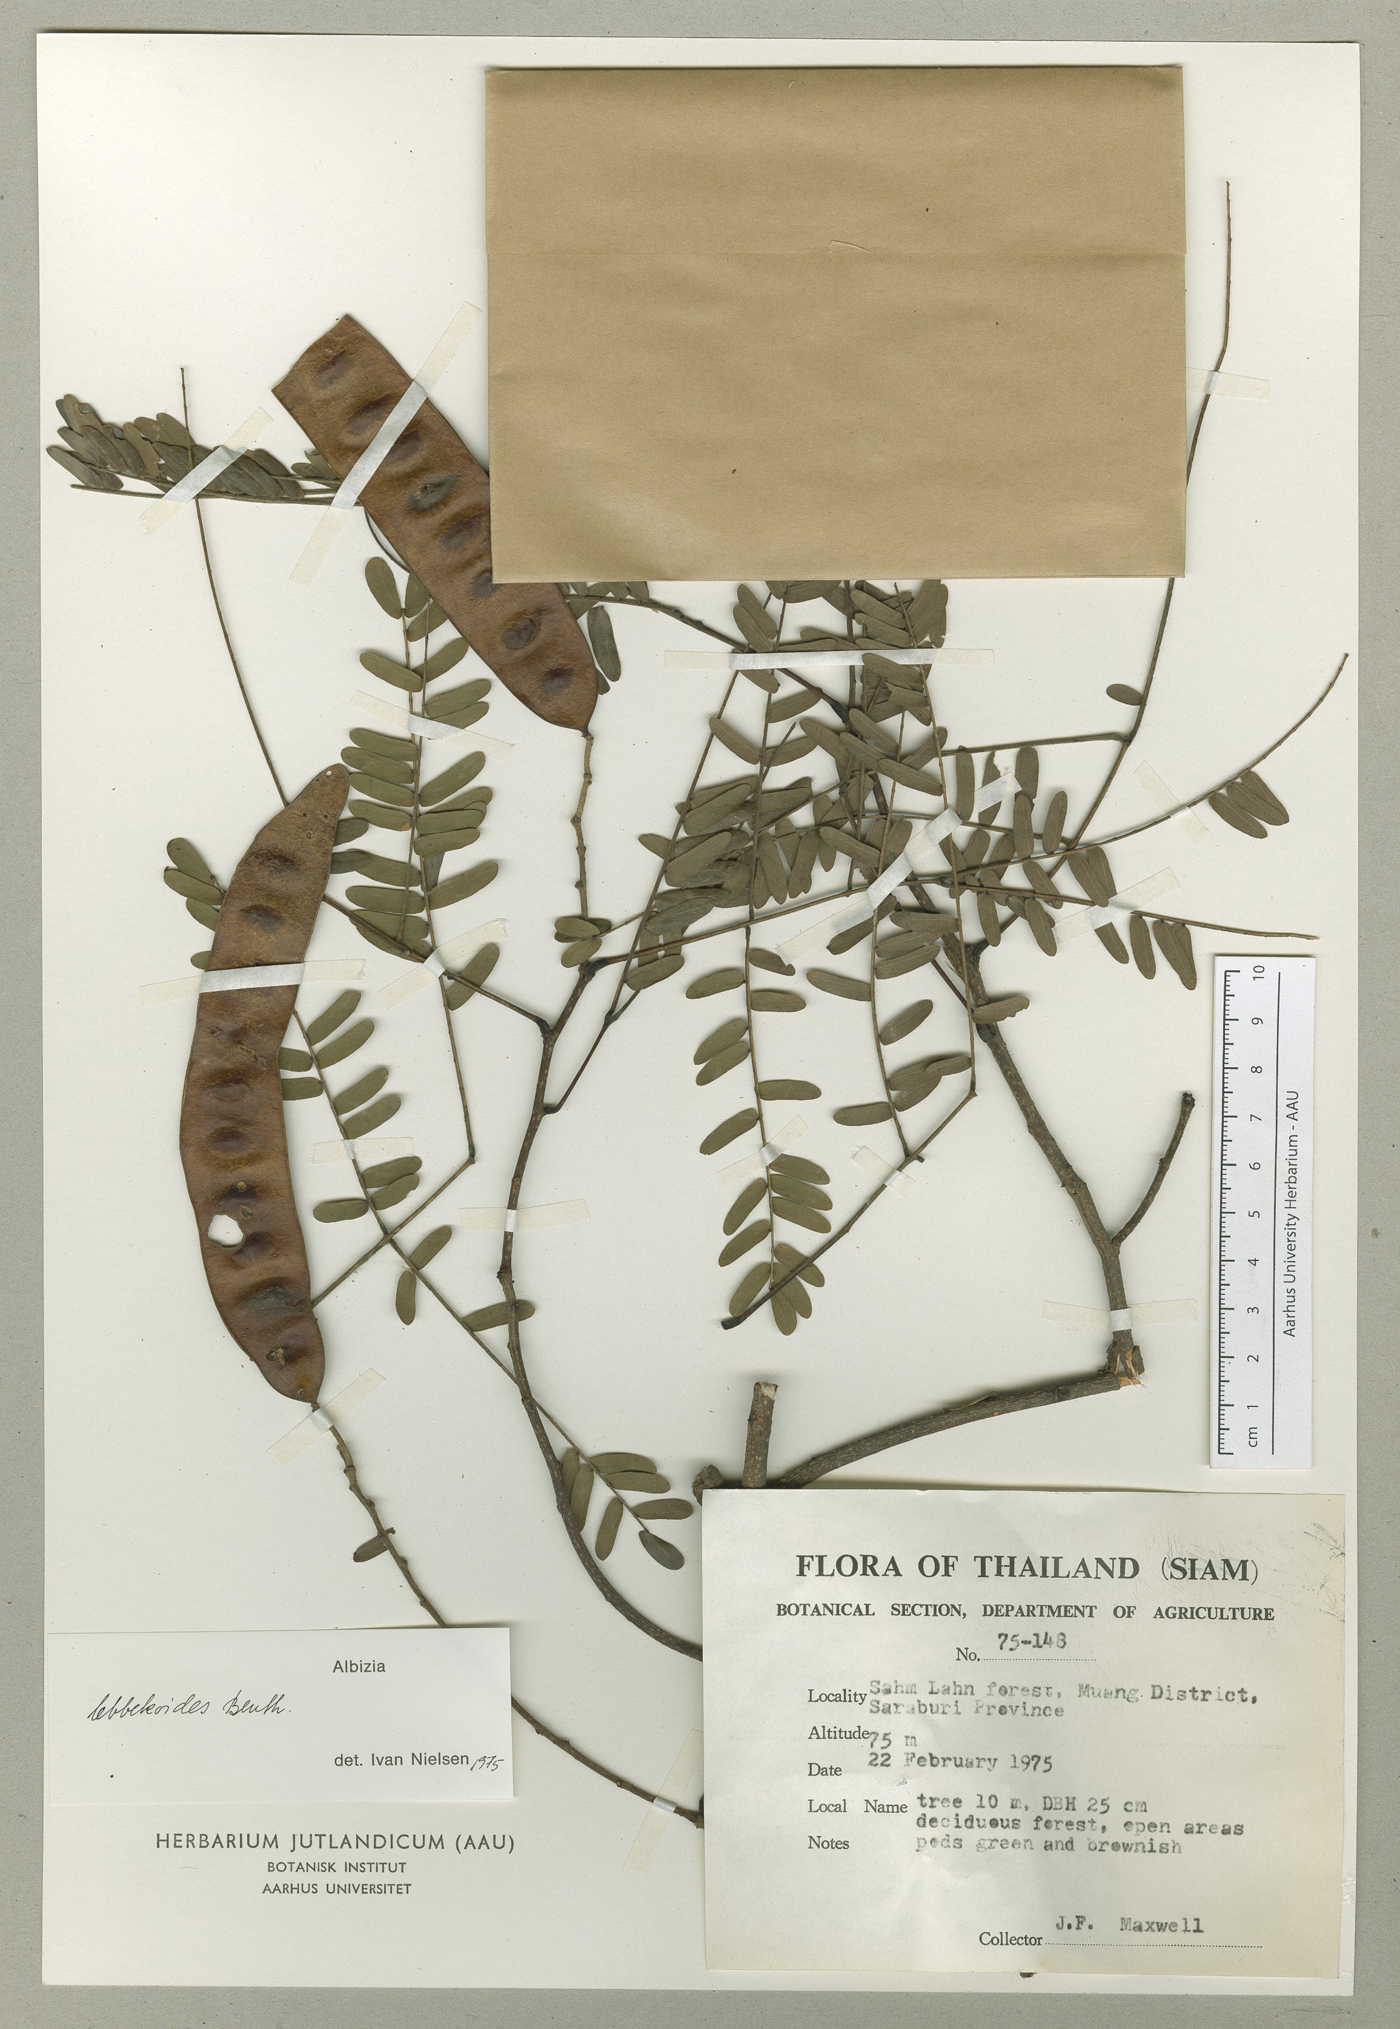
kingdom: Plantae
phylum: Tracheophyta
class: Magnoliopsida
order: Fabales
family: Fabaceae
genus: Albizia
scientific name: Albizia lebbekoides
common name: Indian albizia
